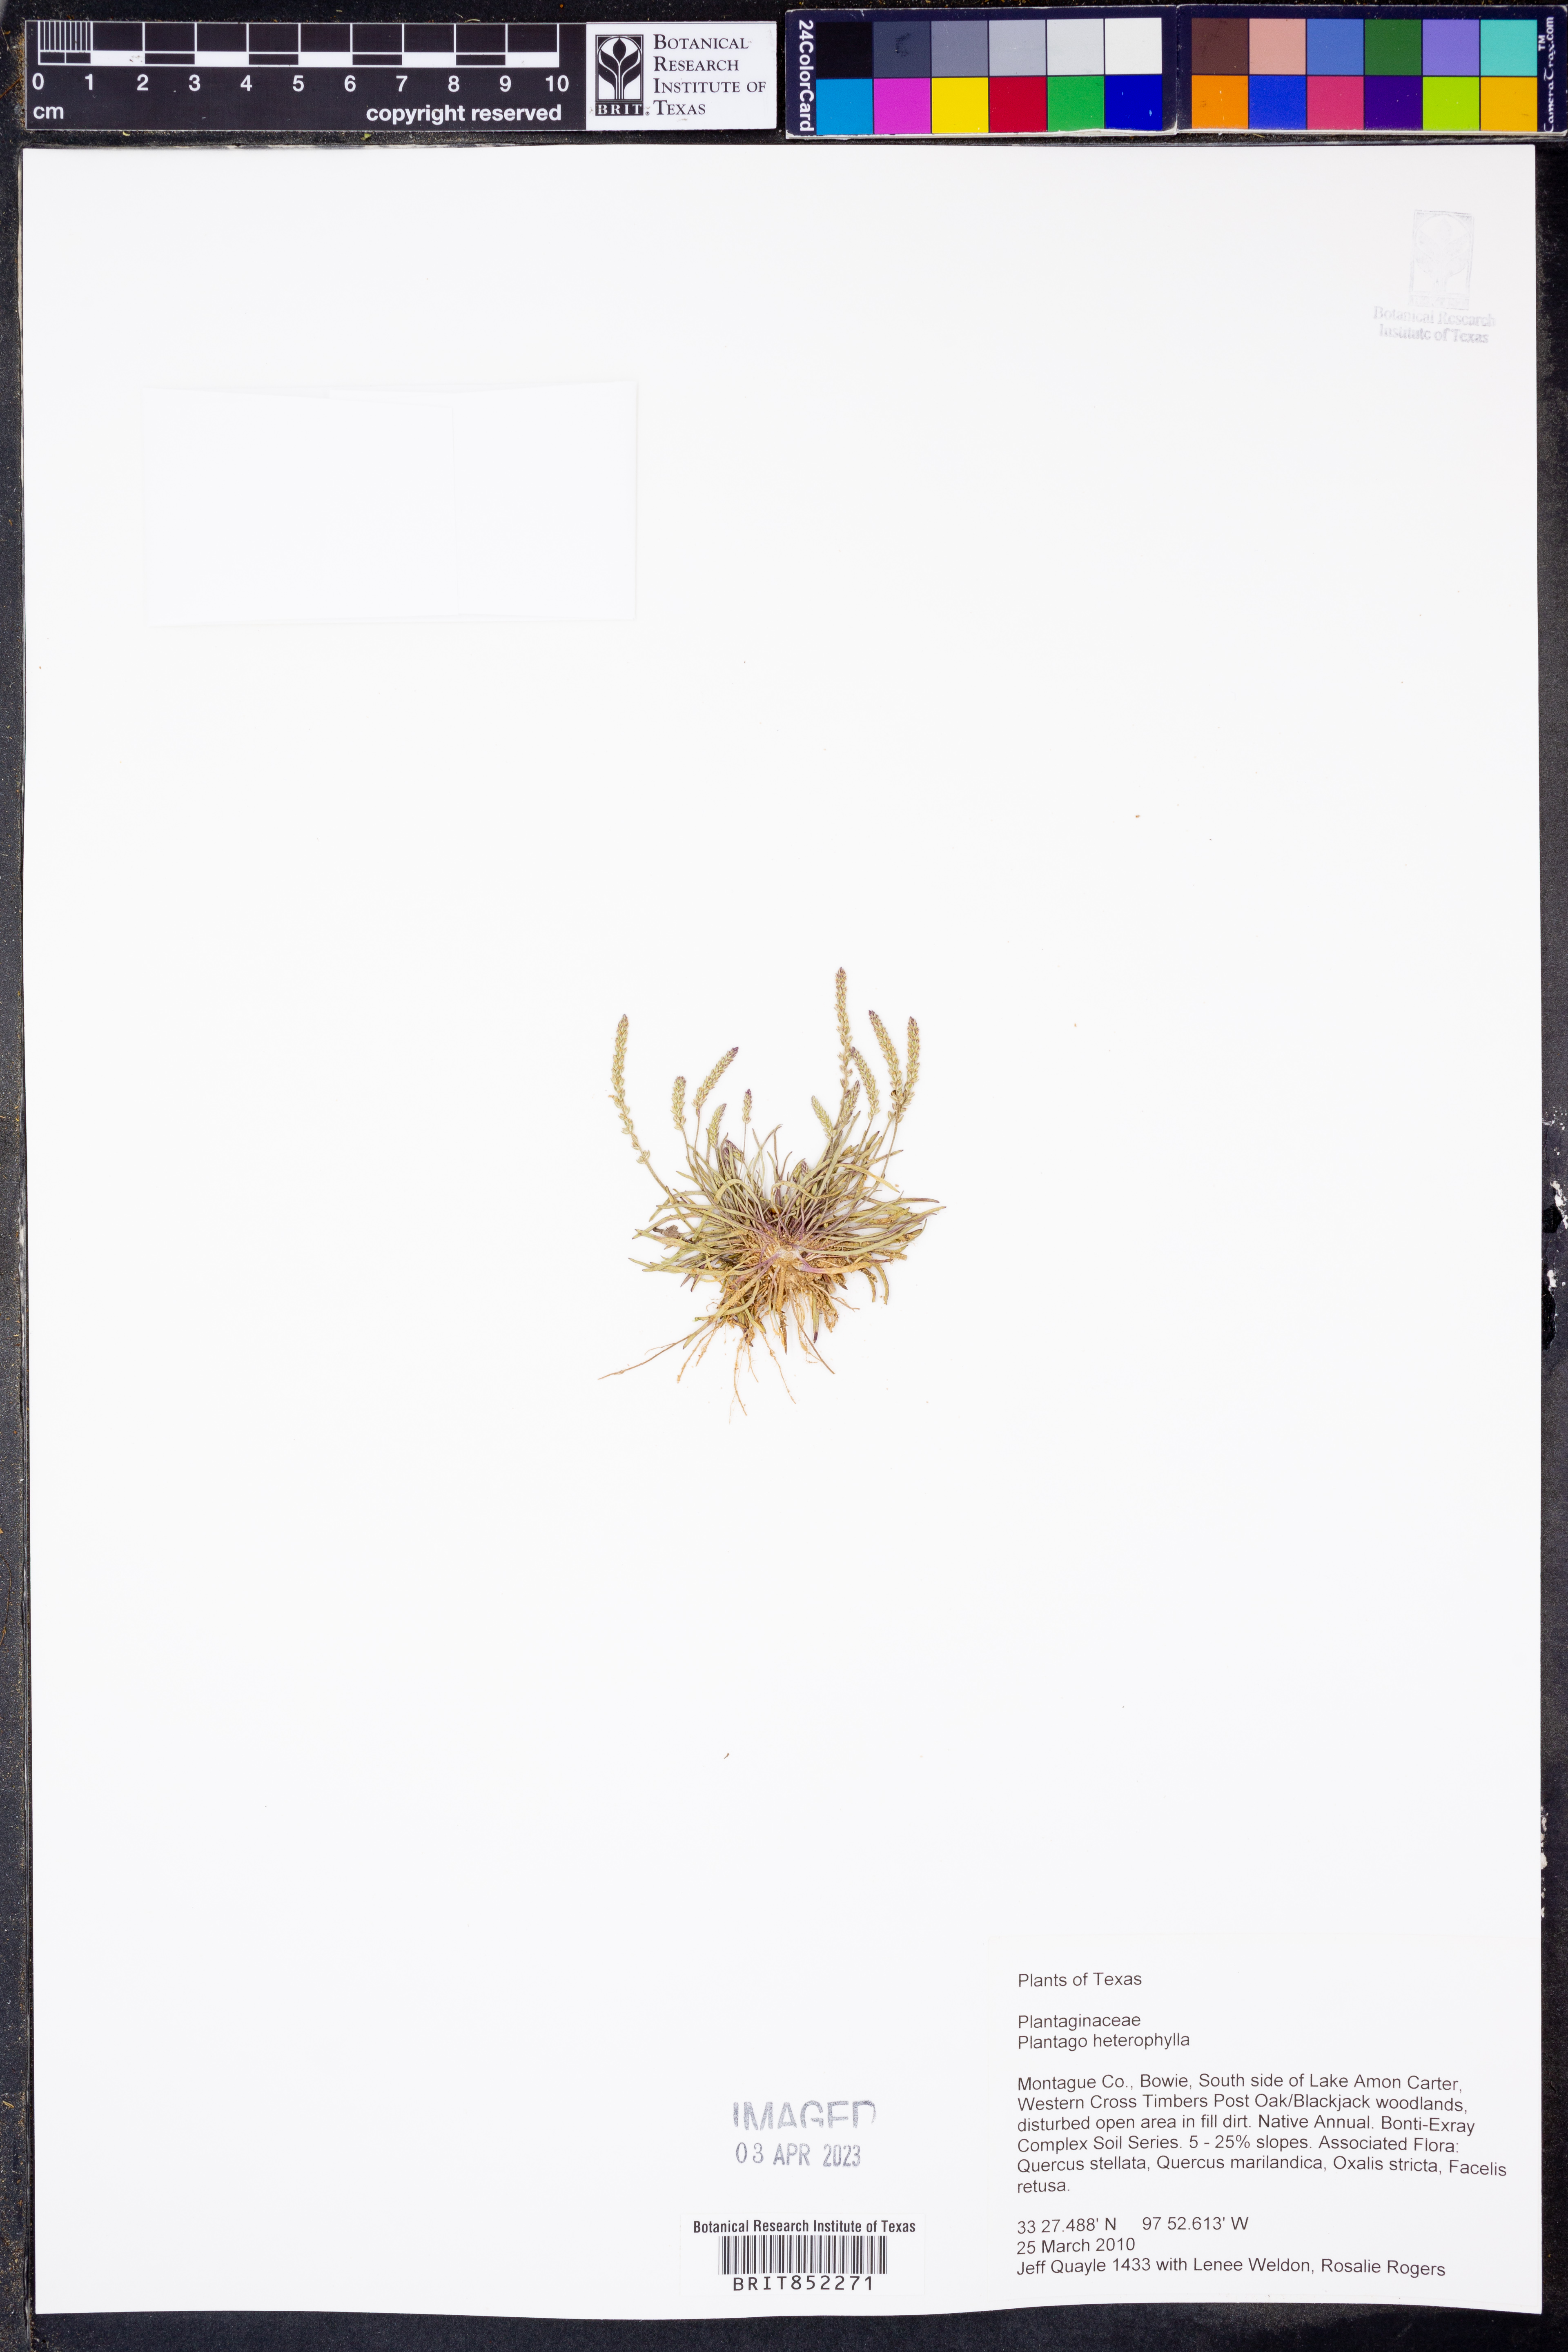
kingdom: Plantae
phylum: Tracheophyta
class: Magnoliopsida
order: Lamiales
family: Plantaginaceae
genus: Plantago
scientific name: Plantago heterophylla
